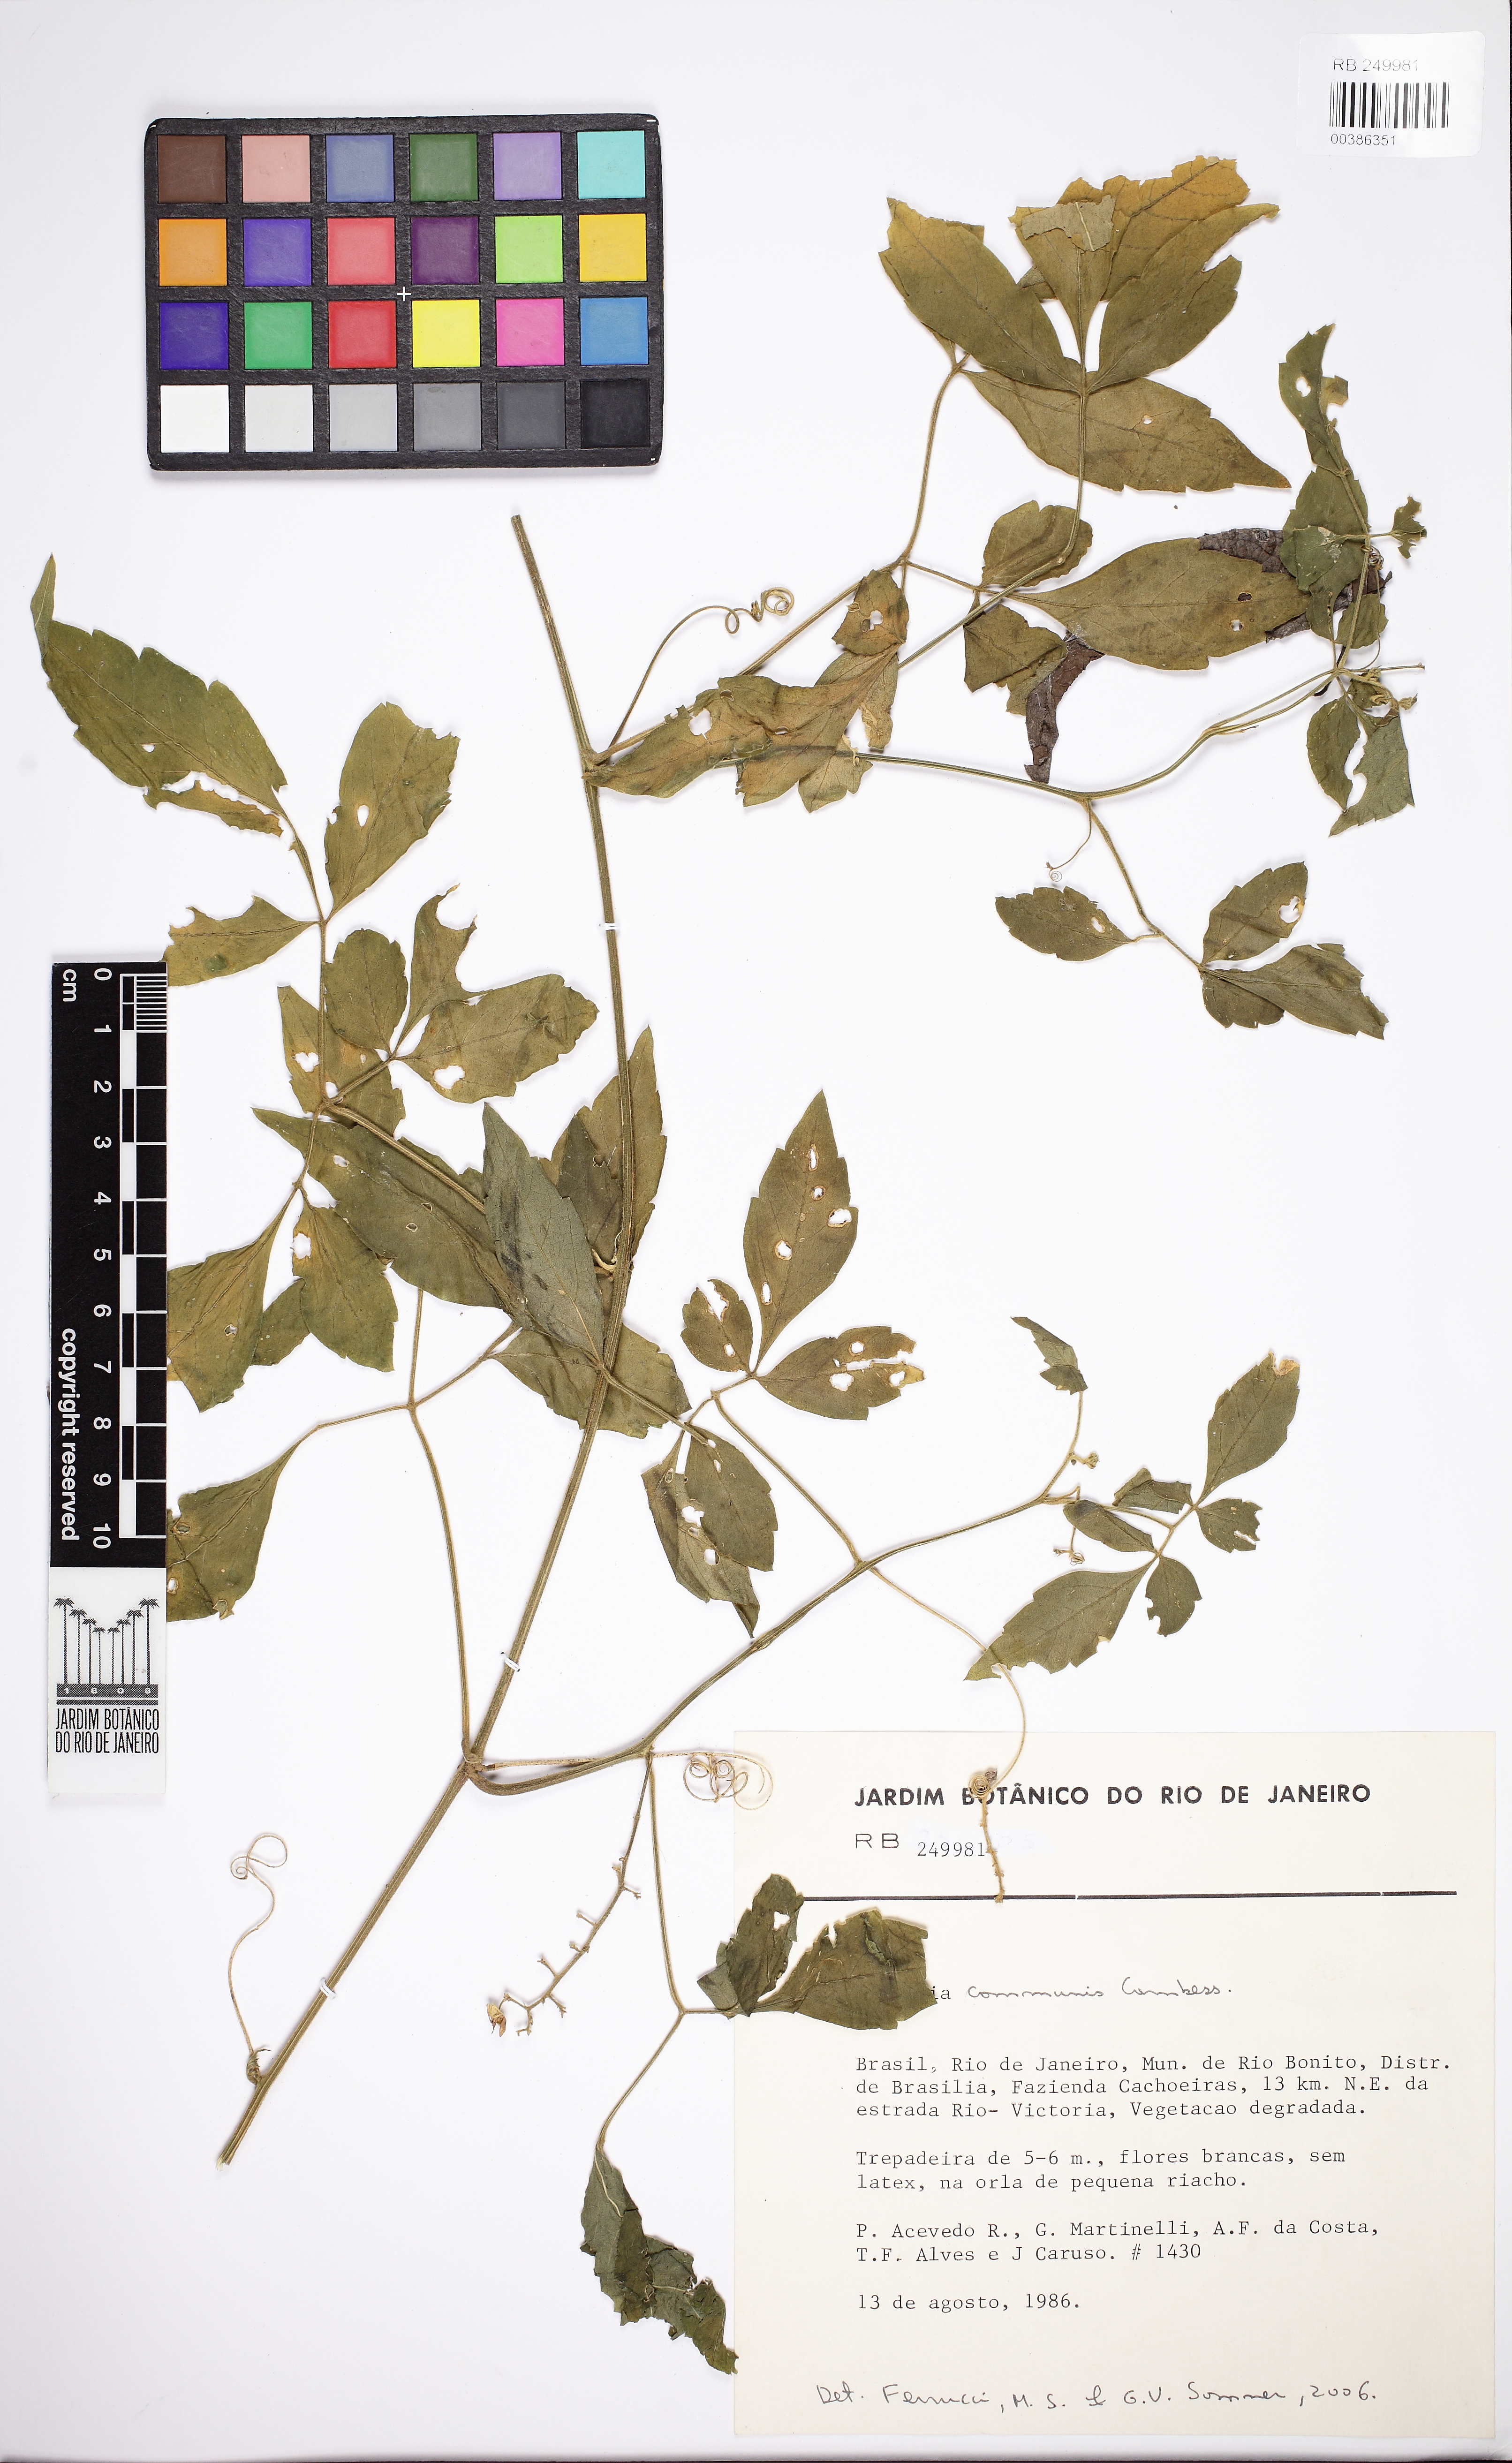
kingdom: Plantae
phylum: Tracheophyta
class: Magnoliopsida
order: Sapindales
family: Sapindaceae
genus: Serjania
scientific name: Serjania communis
